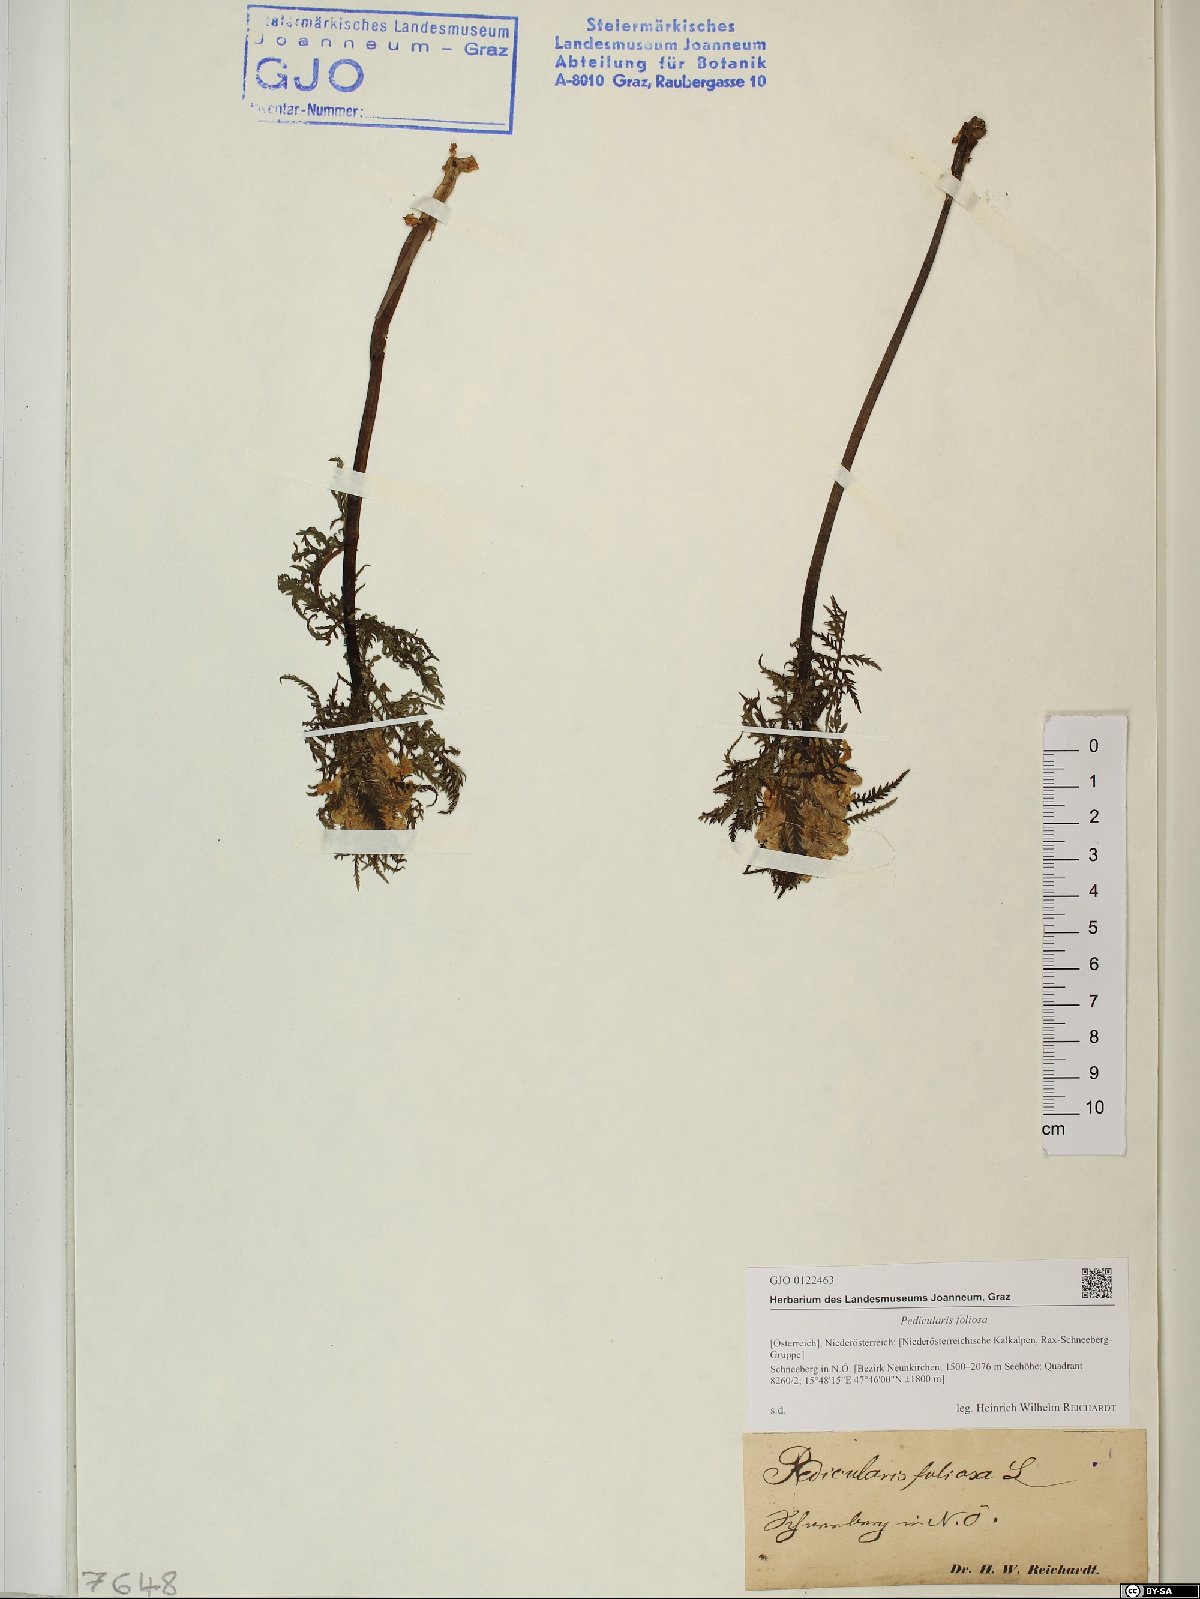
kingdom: Plantae
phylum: Tracheophyta
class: Magnoliopsida
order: Lamiales
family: Orobanchaceae
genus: Pedicularis
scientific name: Pedicularis foliosa
